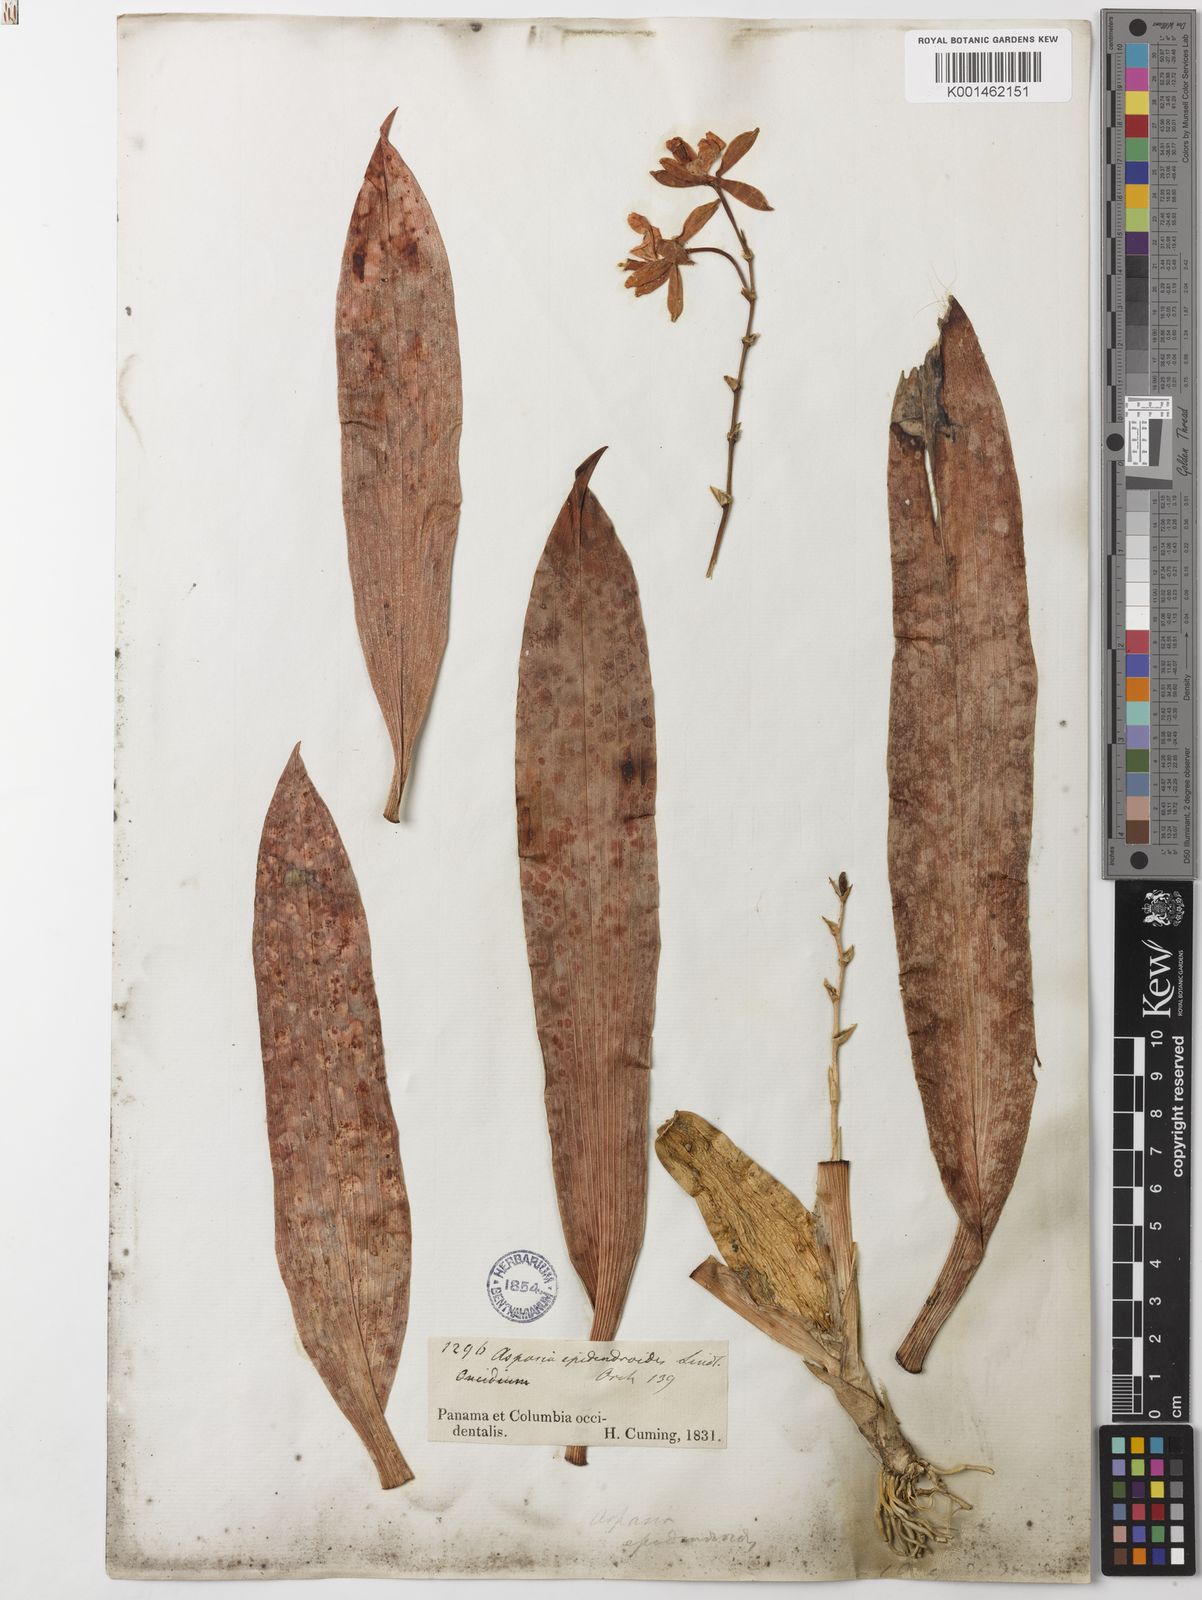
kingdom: Plantae
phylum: Tracheophyta
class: Liliopsida
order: Asparagales
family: Orchidaceae
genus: Aspasia
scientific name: Aspasia epidendroides
